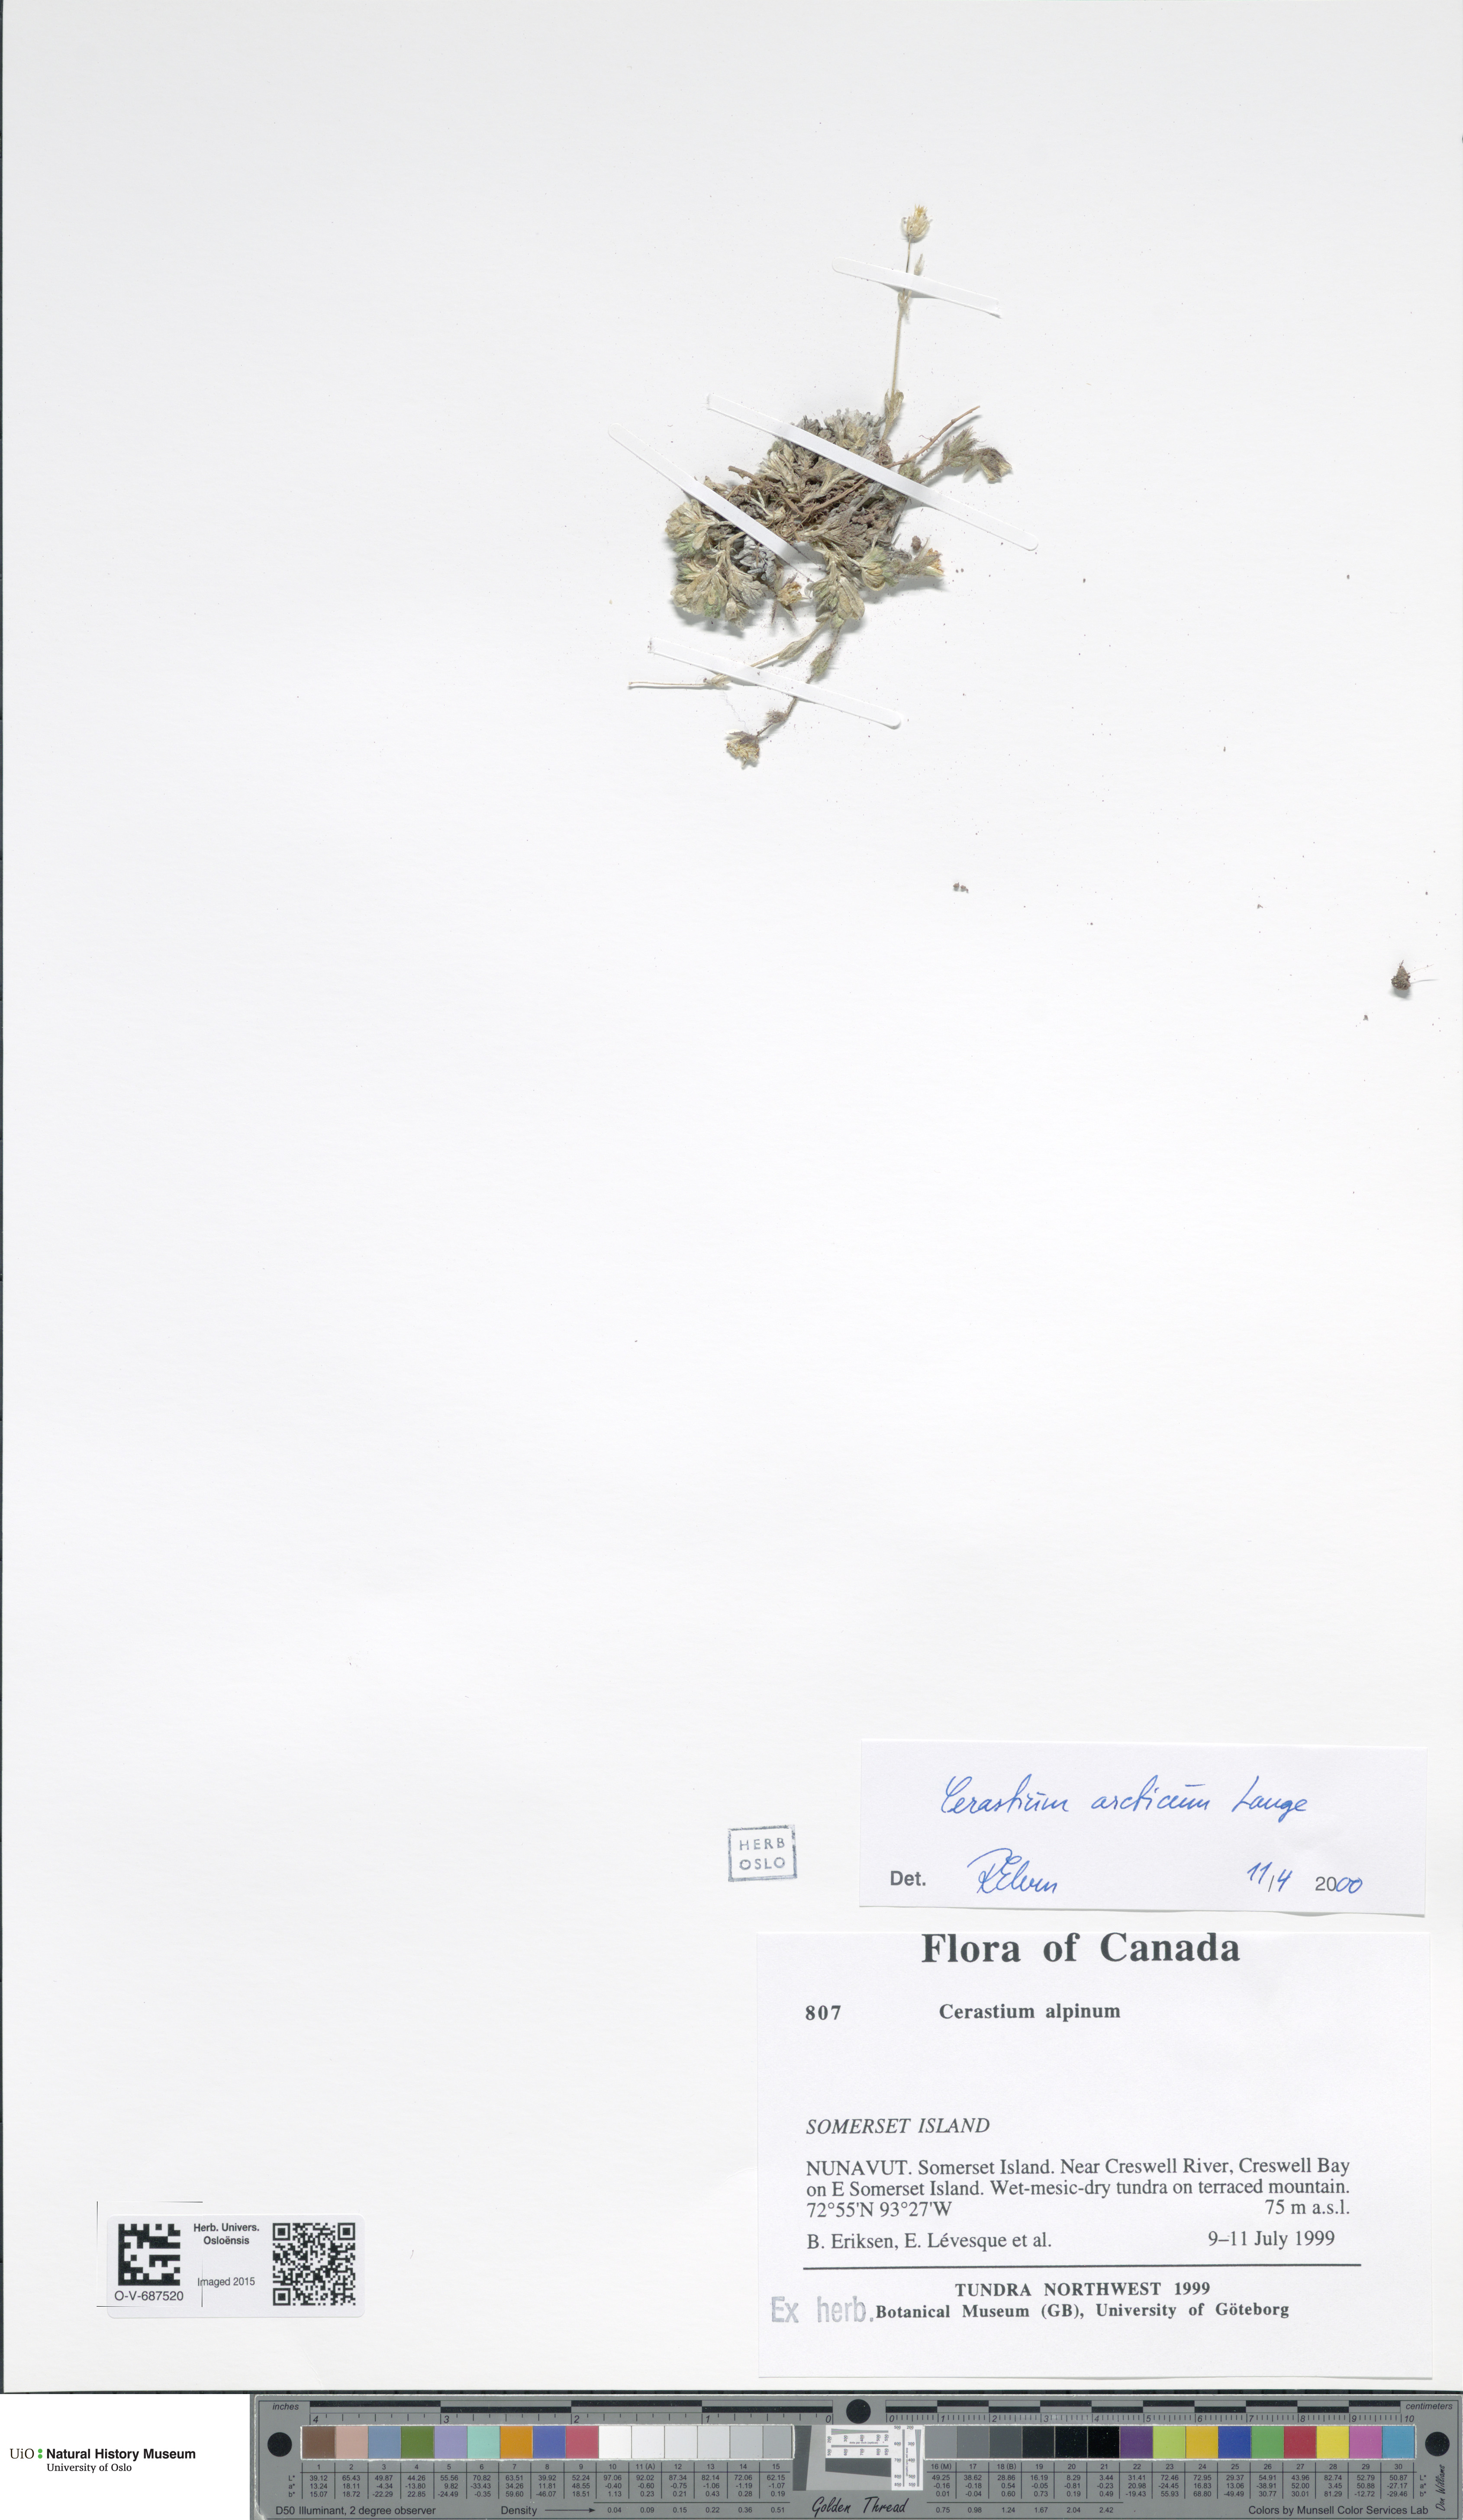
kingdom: Plantae
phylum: Tracheophyta
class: Magnoliopsida
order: Caryophyllales
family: Caryophyllaceae
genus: Cerastium
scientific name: Cerastium arcticum
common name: Arctic mouse-ear
